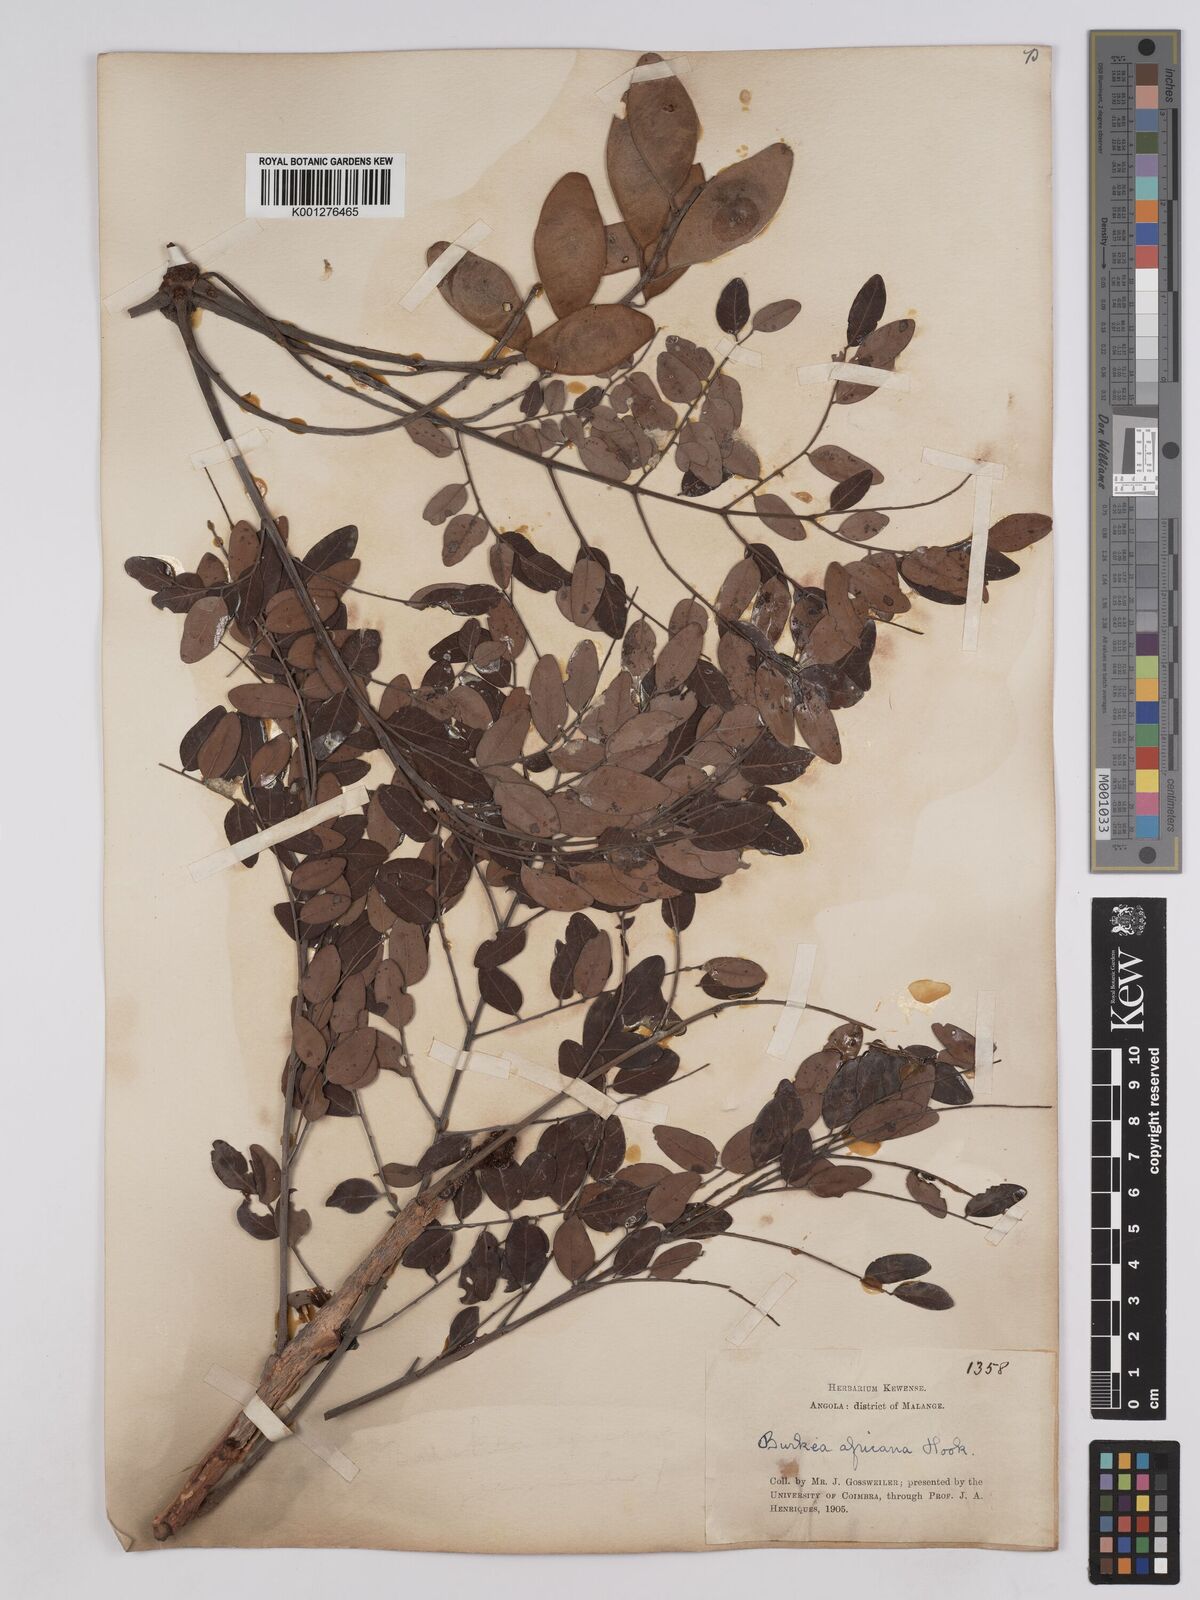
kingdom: Plantae
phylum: Tracheophyta
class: Magnoliopsida
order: Fabales
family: Fabaceae
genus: Burkea
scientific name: Burkea africana
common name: Mkalati tree
